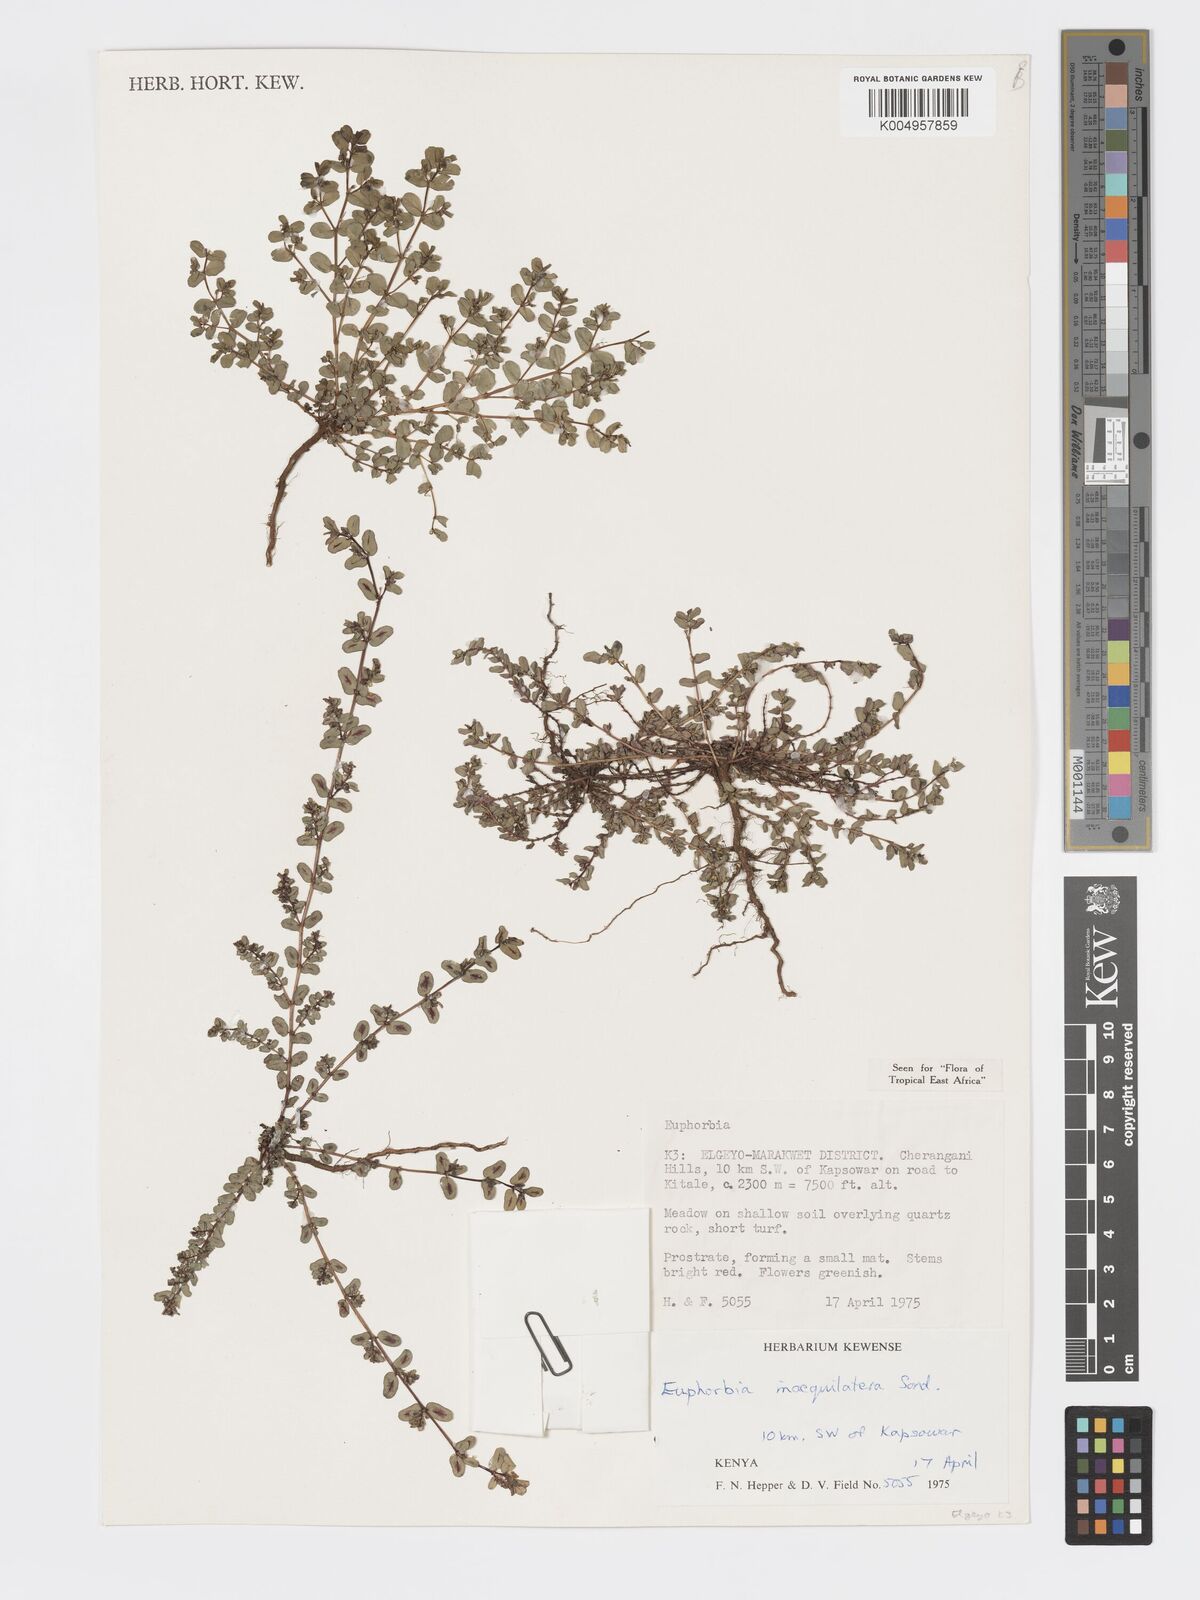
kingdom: Plantae
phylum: Tracheophyta
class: Magnoliopsida
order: Malpighiales
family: Euphorbiaceae
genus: Euphorbia
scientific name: Euphorbia inaequilatera
